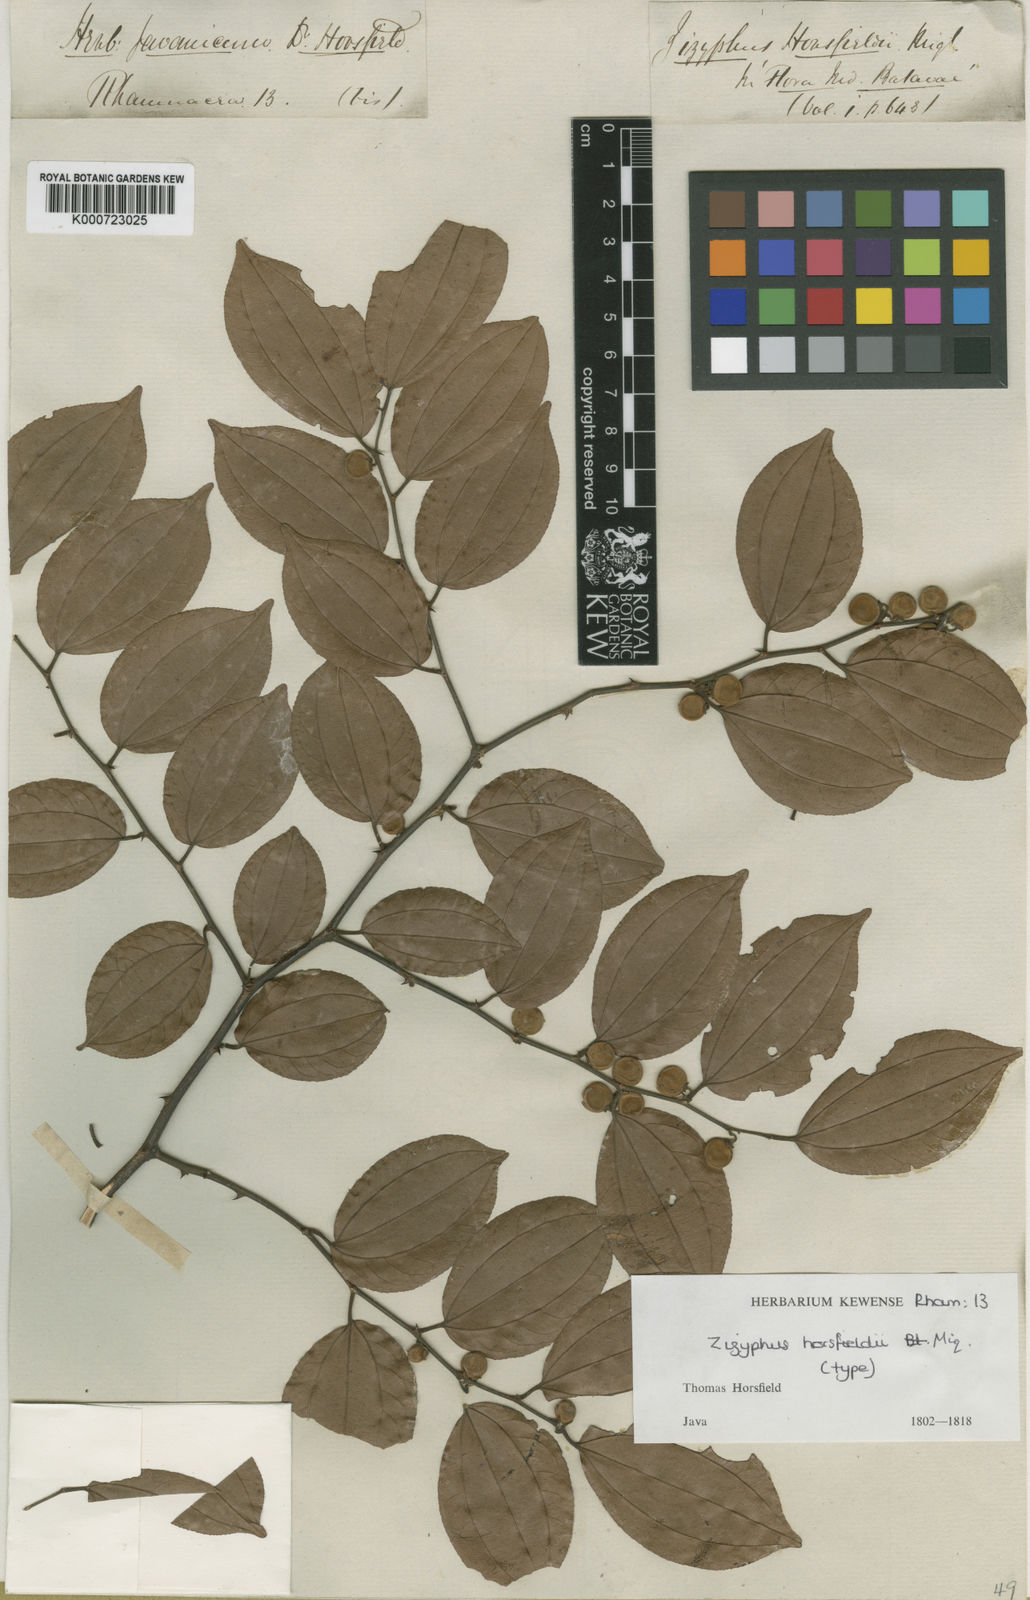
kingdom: Plantae
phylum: Tracheophyta
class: Magnoliopsida
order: Rosales
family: Rhamnaceae
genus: Ziziphus
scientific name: Ziziphus horsfieldii
